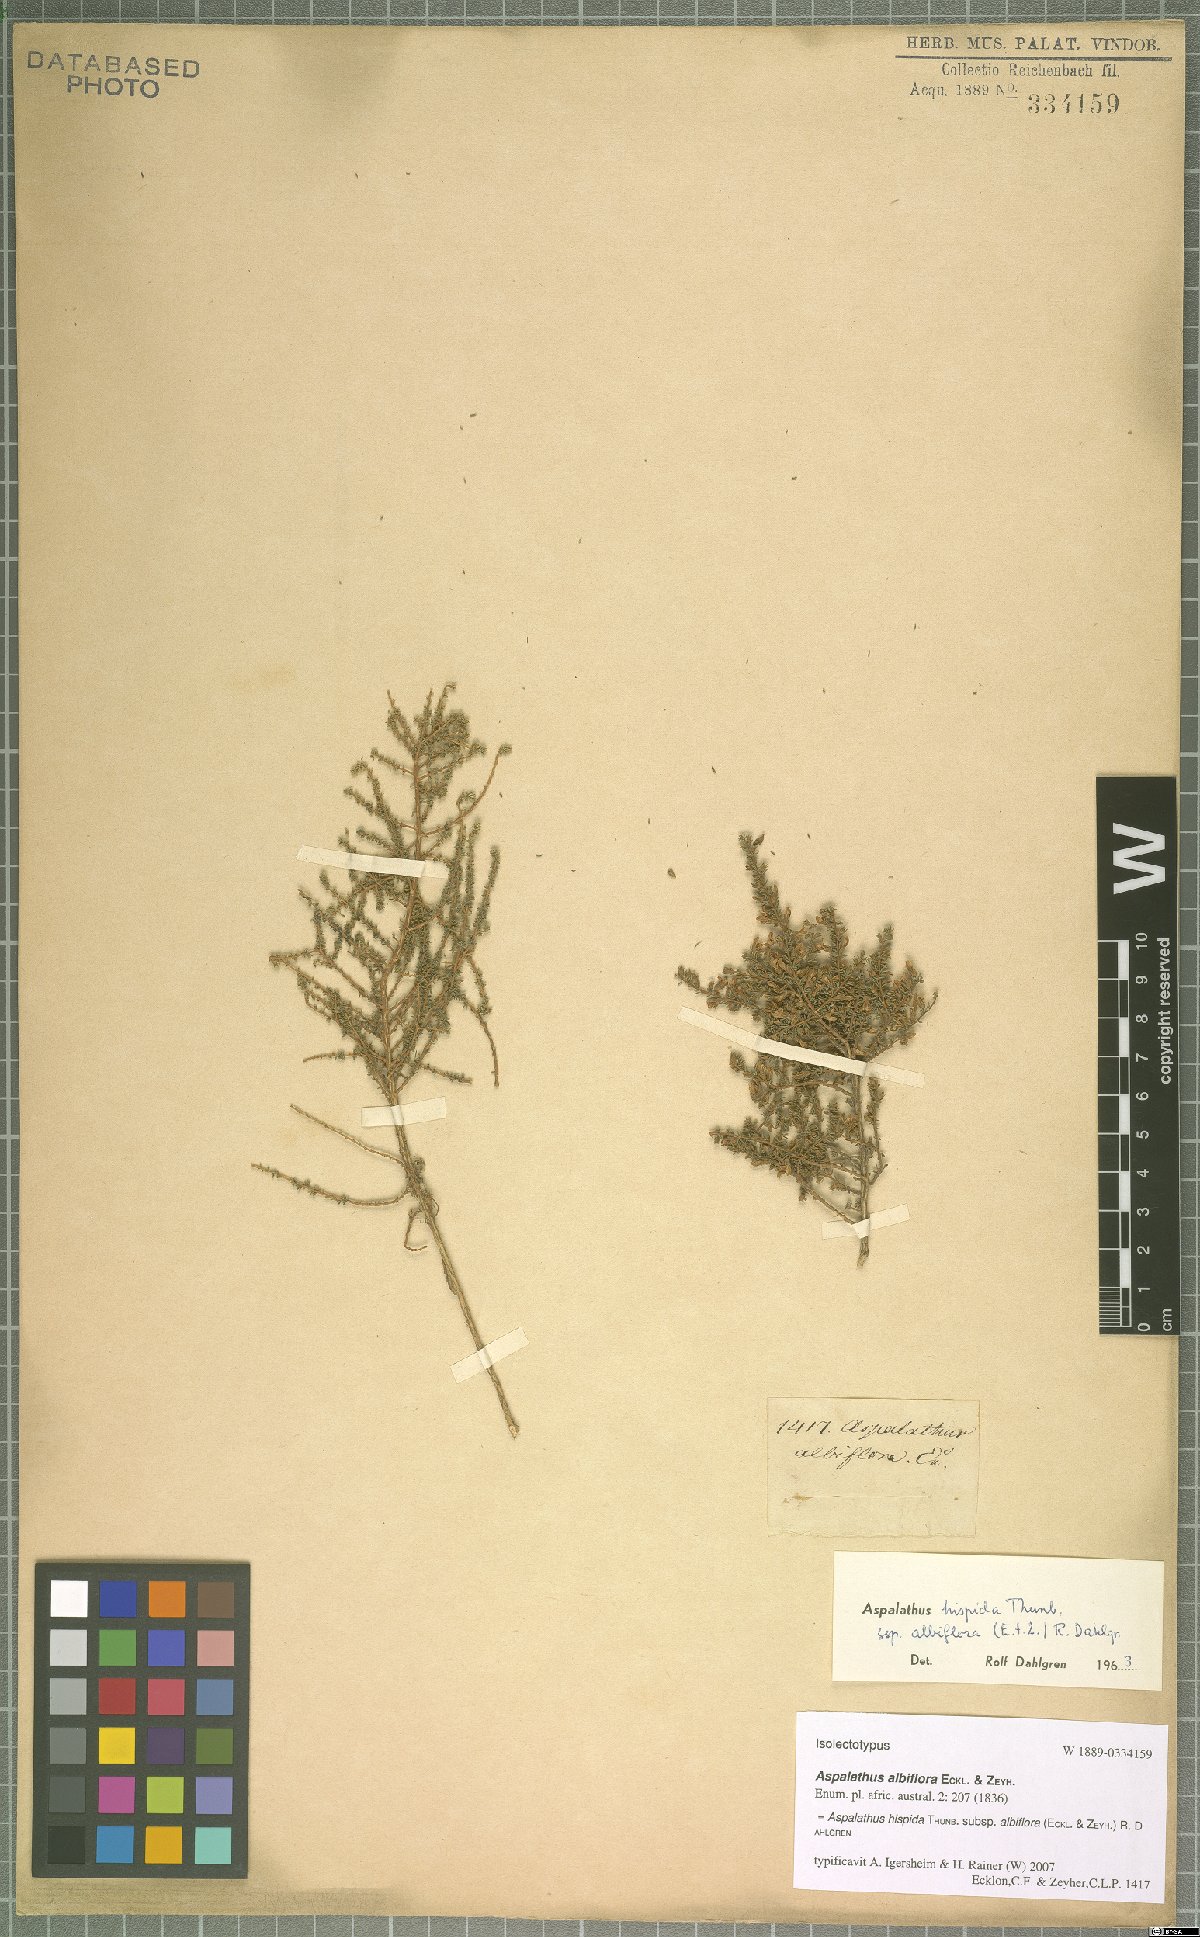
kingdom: Plantae
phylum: Tracheophyta
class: Magnoliopsida
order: Fabales
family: Fabaceae
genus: Aspalathus
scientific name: Aspalathus hispida
